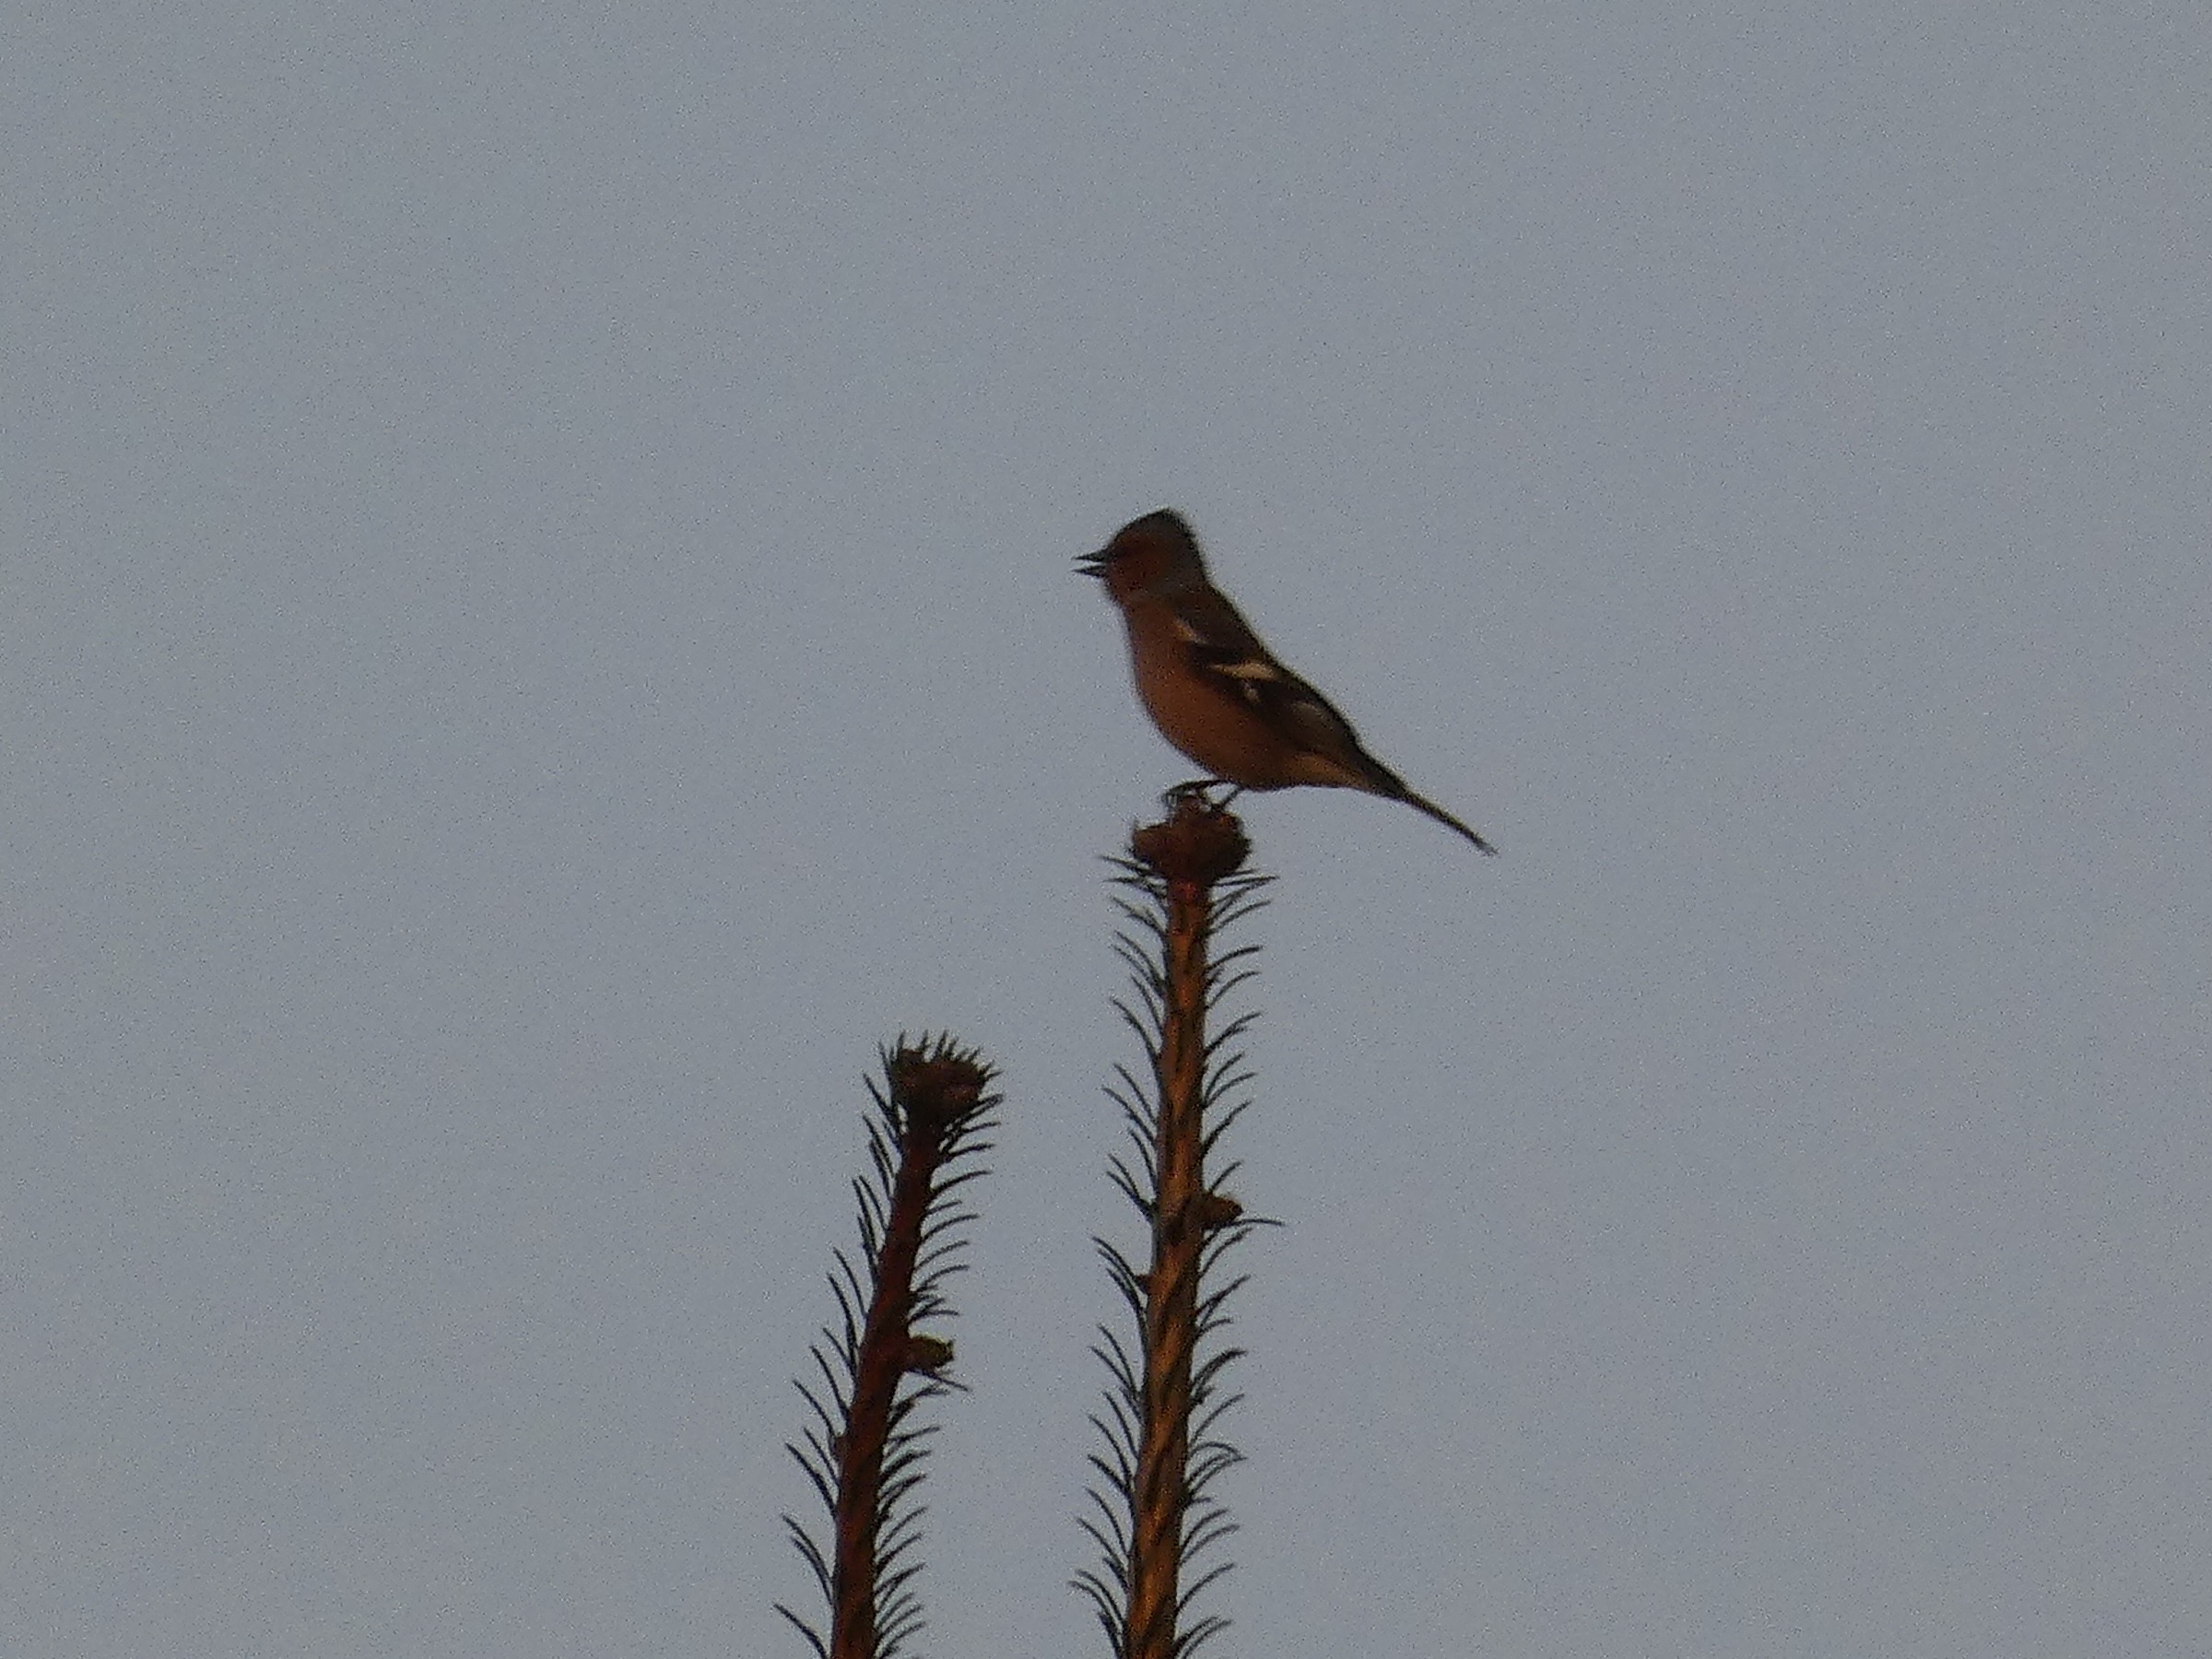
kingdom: Animalia
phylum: Chordata
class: Aves
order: Passeriformes
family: Fringillidae
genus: Fringilla
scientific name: Fringilla coelebs
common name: Bogfinke
